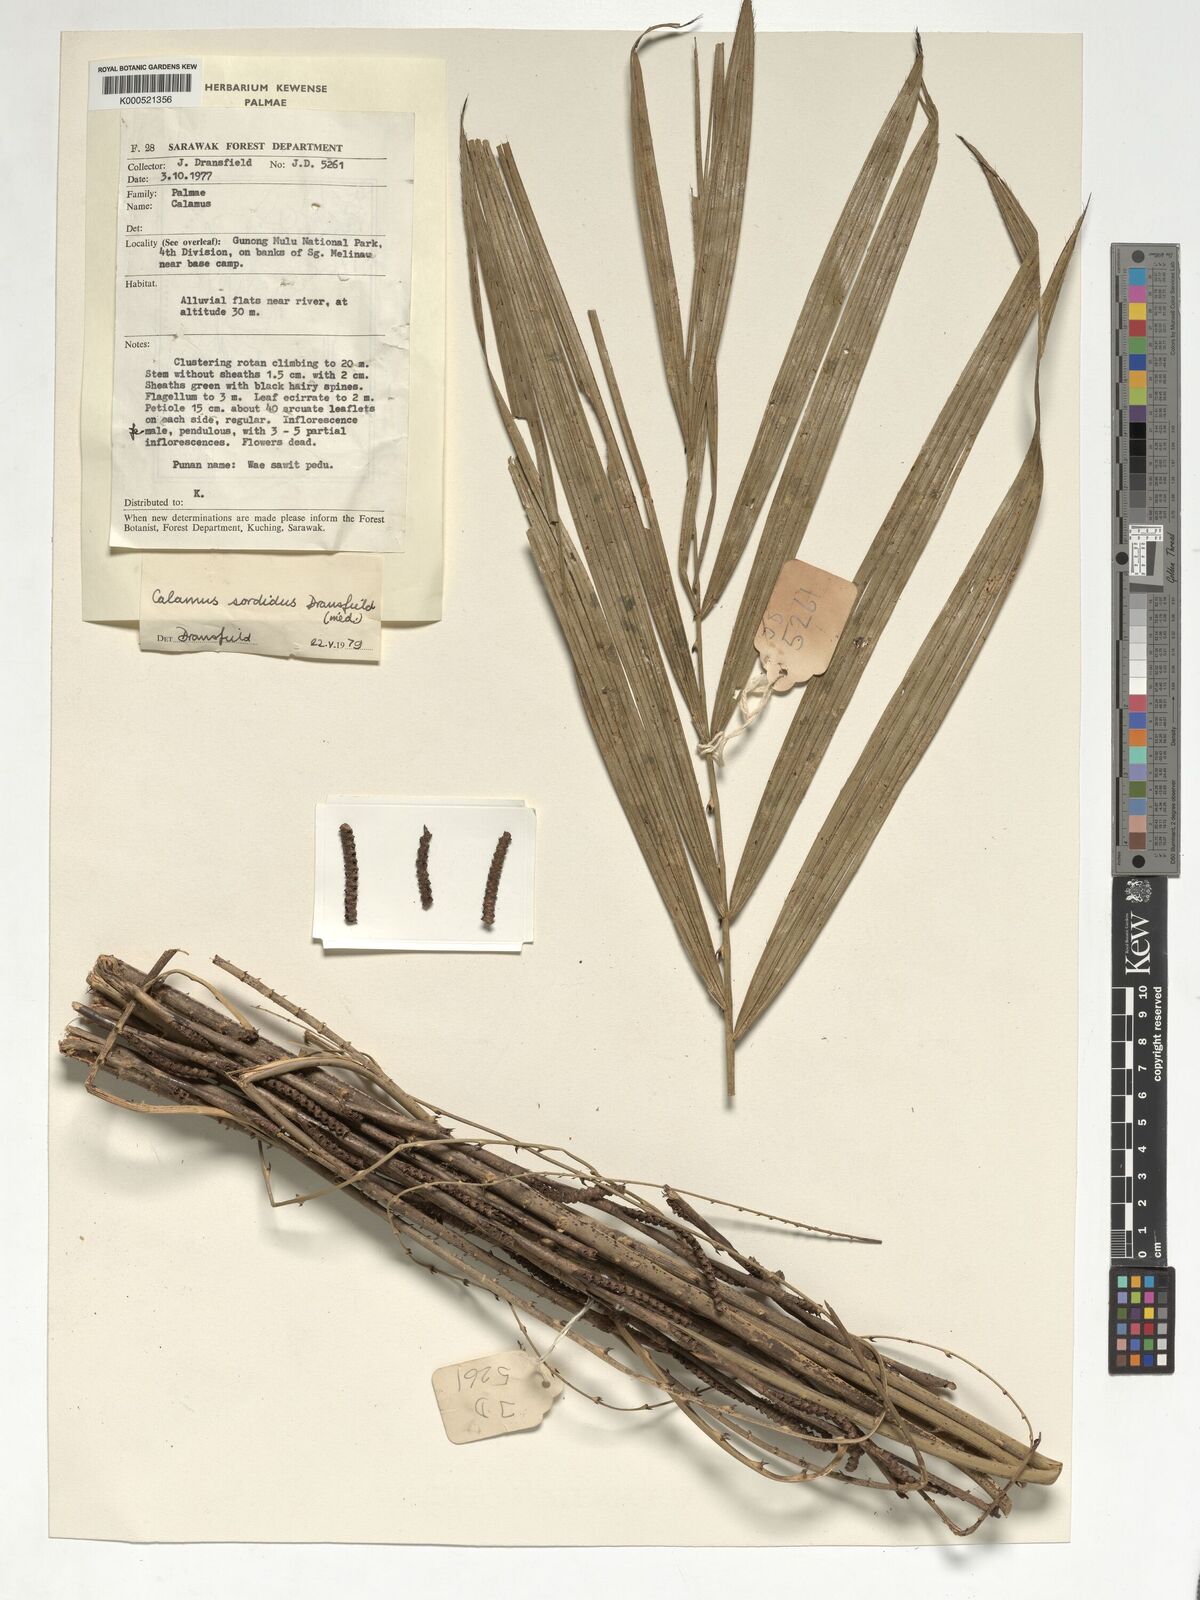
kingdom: Plantae
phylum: Tracheophyta
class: Liliopsida
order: Arecales
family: Arecaceae
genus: Calamus
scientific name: Calamus sordidus
